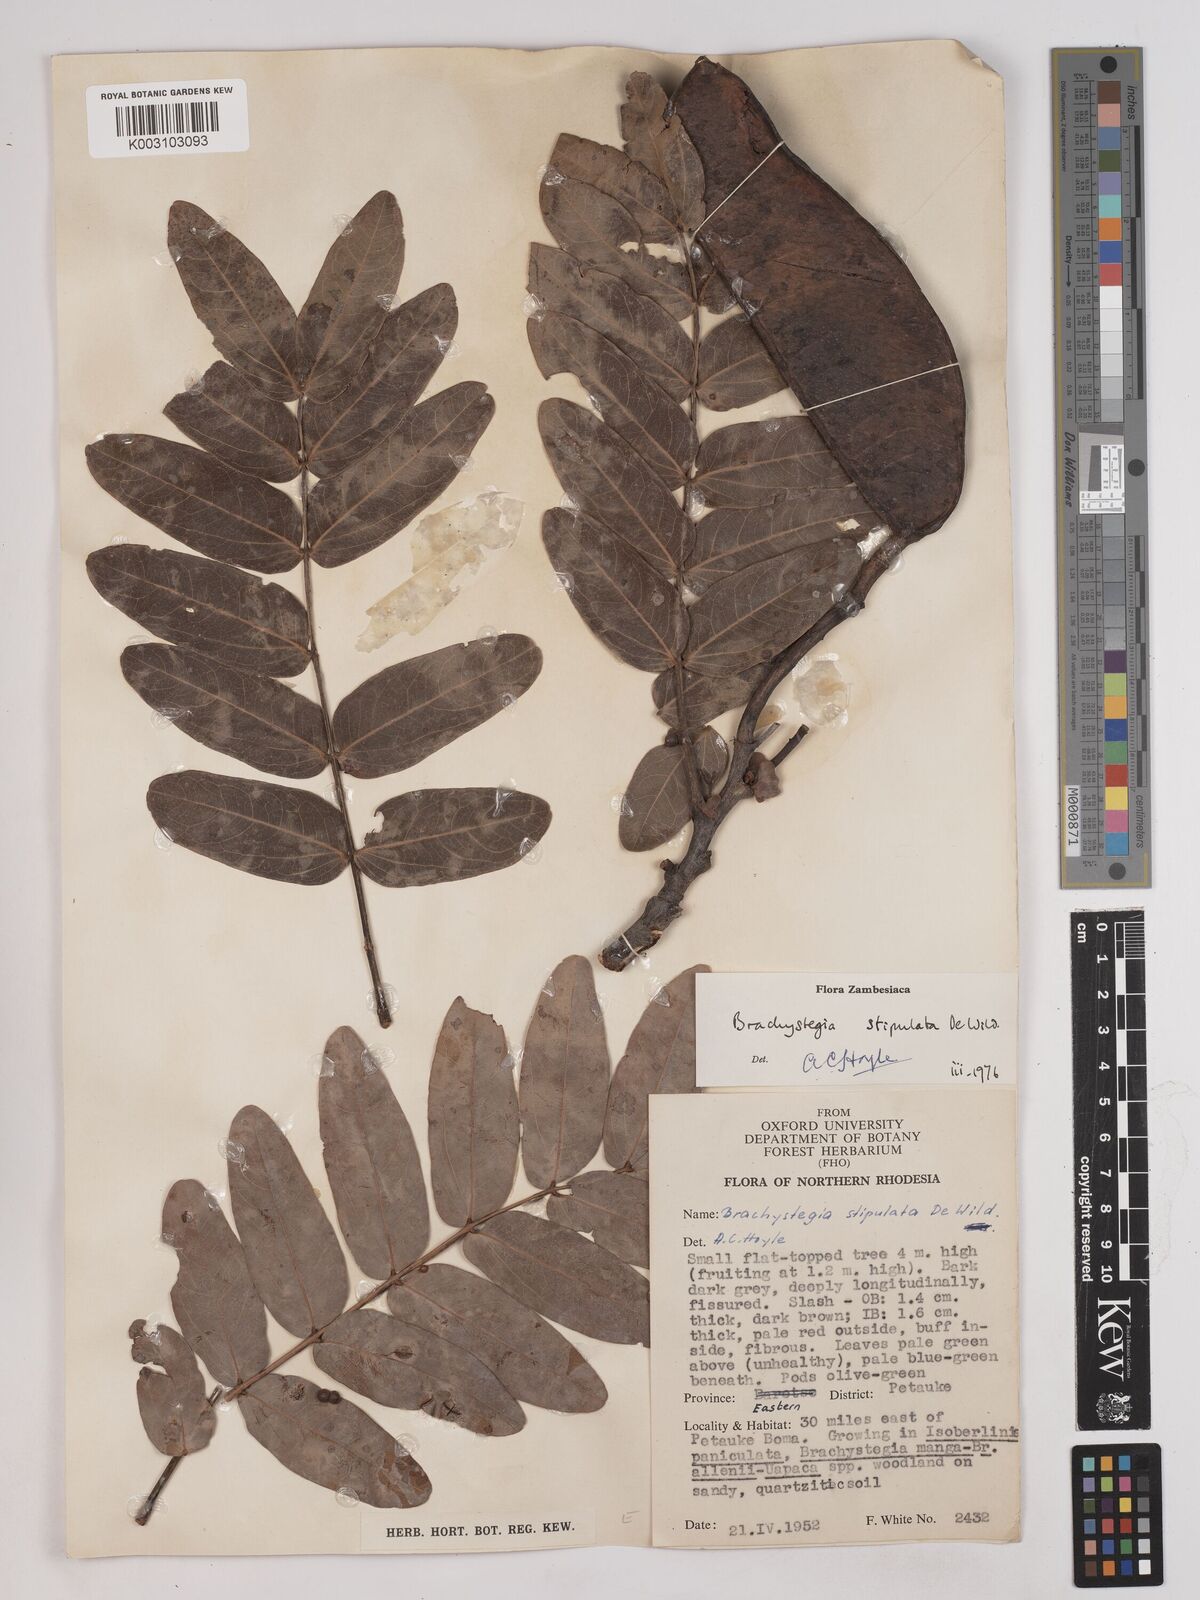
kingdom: Plantae
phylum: Tracheophyta
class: Magnoliopsida
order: Fabales
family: Fabaceae
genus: Brachystegia
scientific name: Brachystegia stipulata
